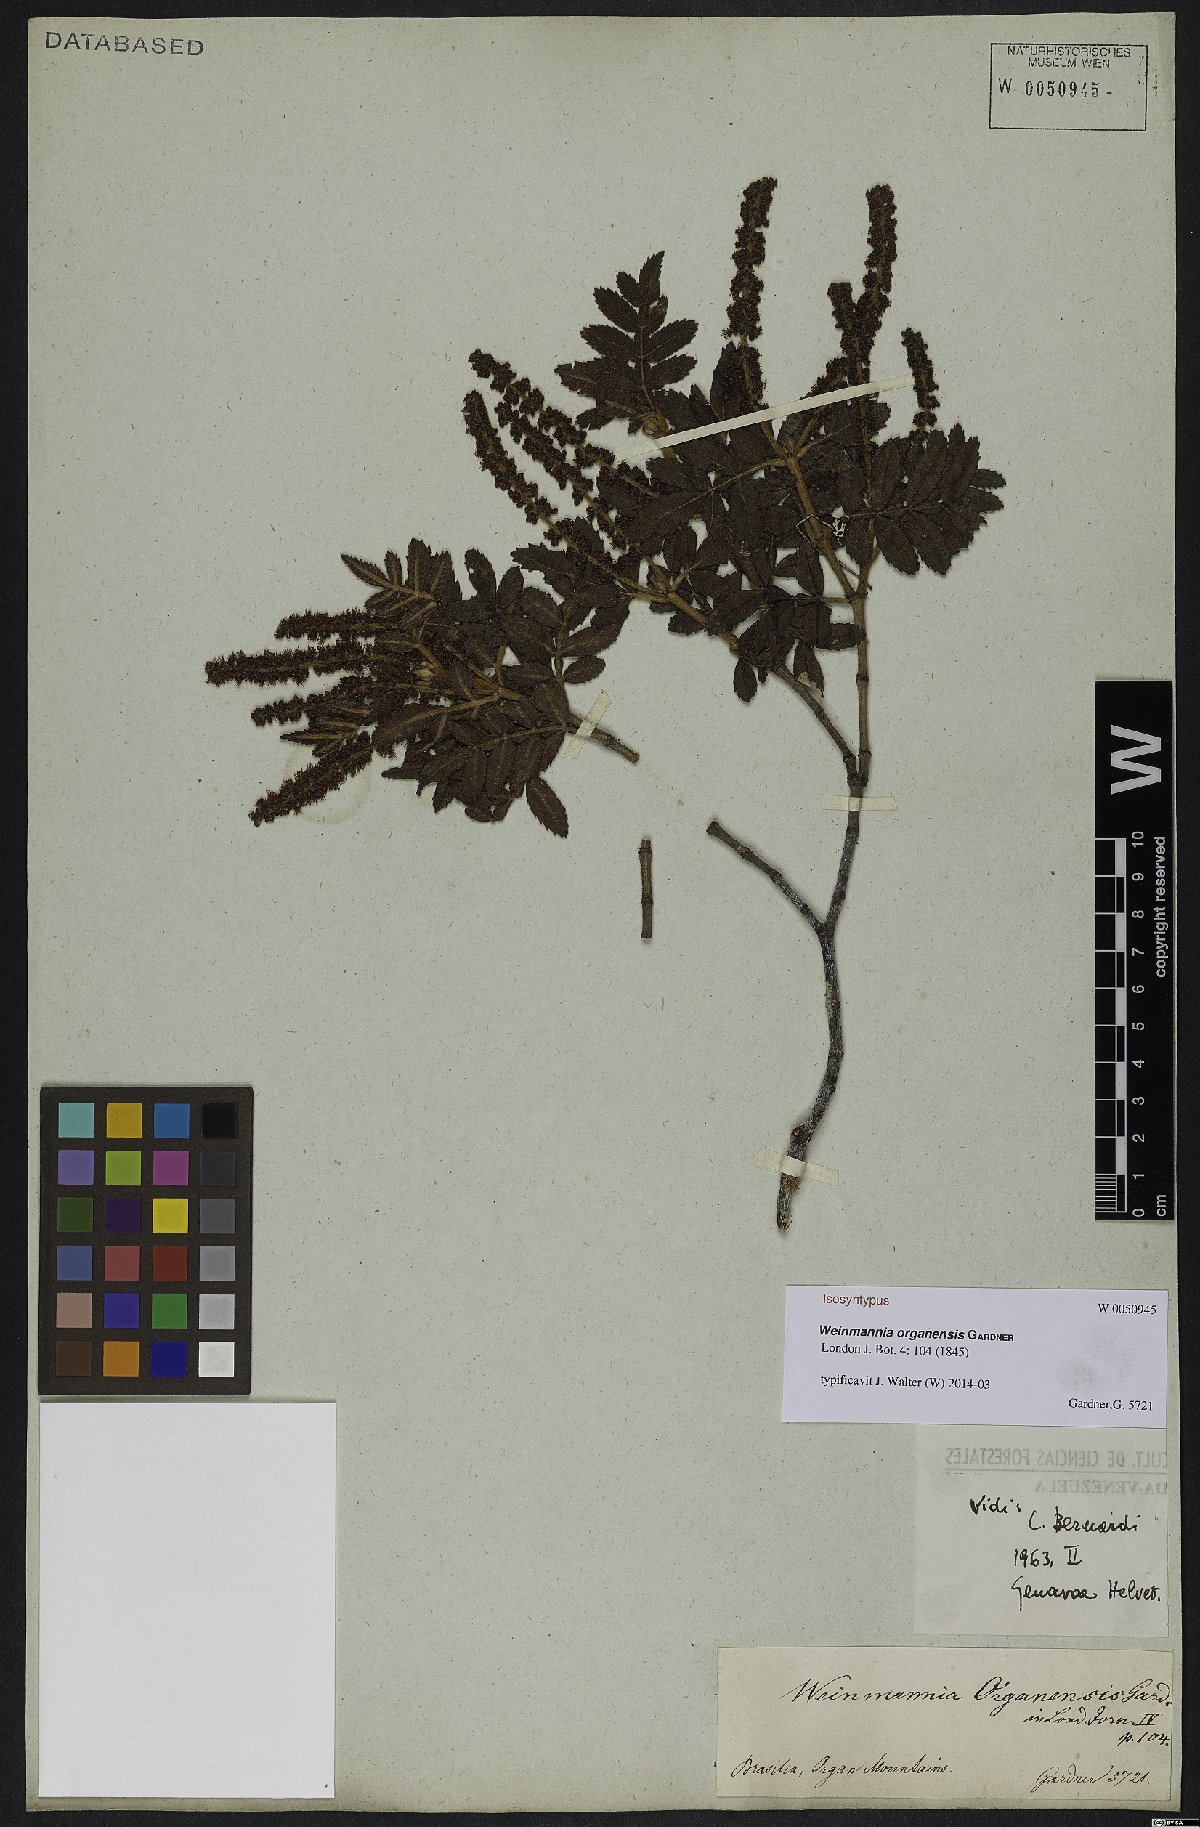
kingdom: Plantae
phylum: Tracheophyta
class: Magnoliopsida
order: Oxalidales
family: Cunoniaceae
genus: Weinmannia
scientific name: Weinmannia organensis
